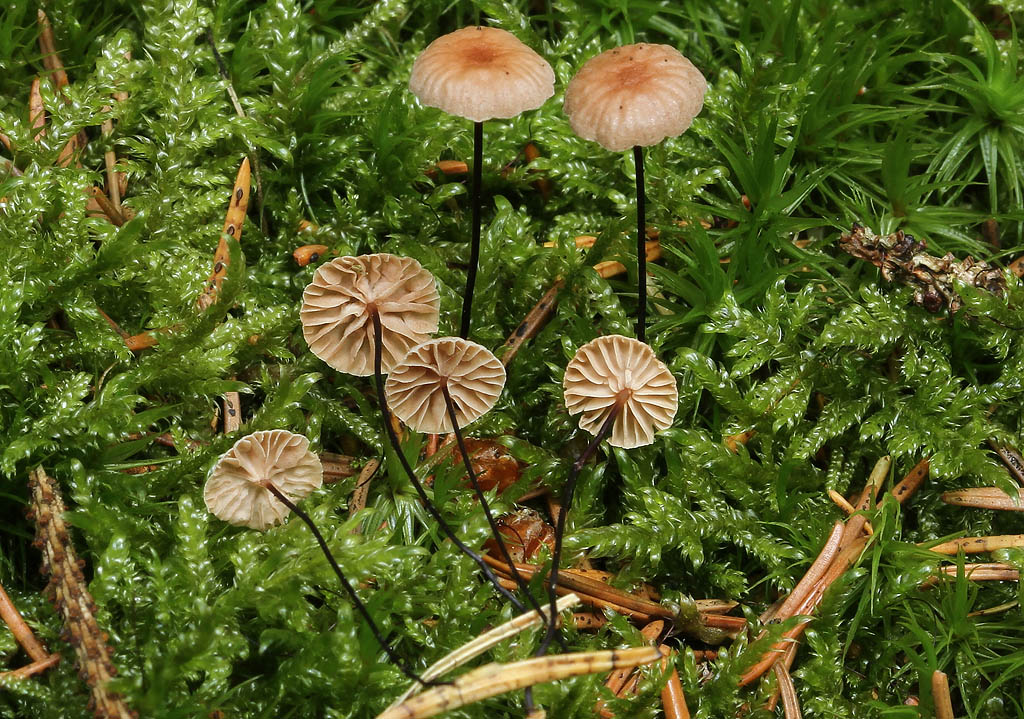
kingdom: Fungi
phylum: Basidiomycota
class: Agaricomycetes
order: Agaricales
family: Omphalotaceae
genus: Gymnopus
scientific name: Gymnopus androsaceus
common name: trådstokket fladhat
